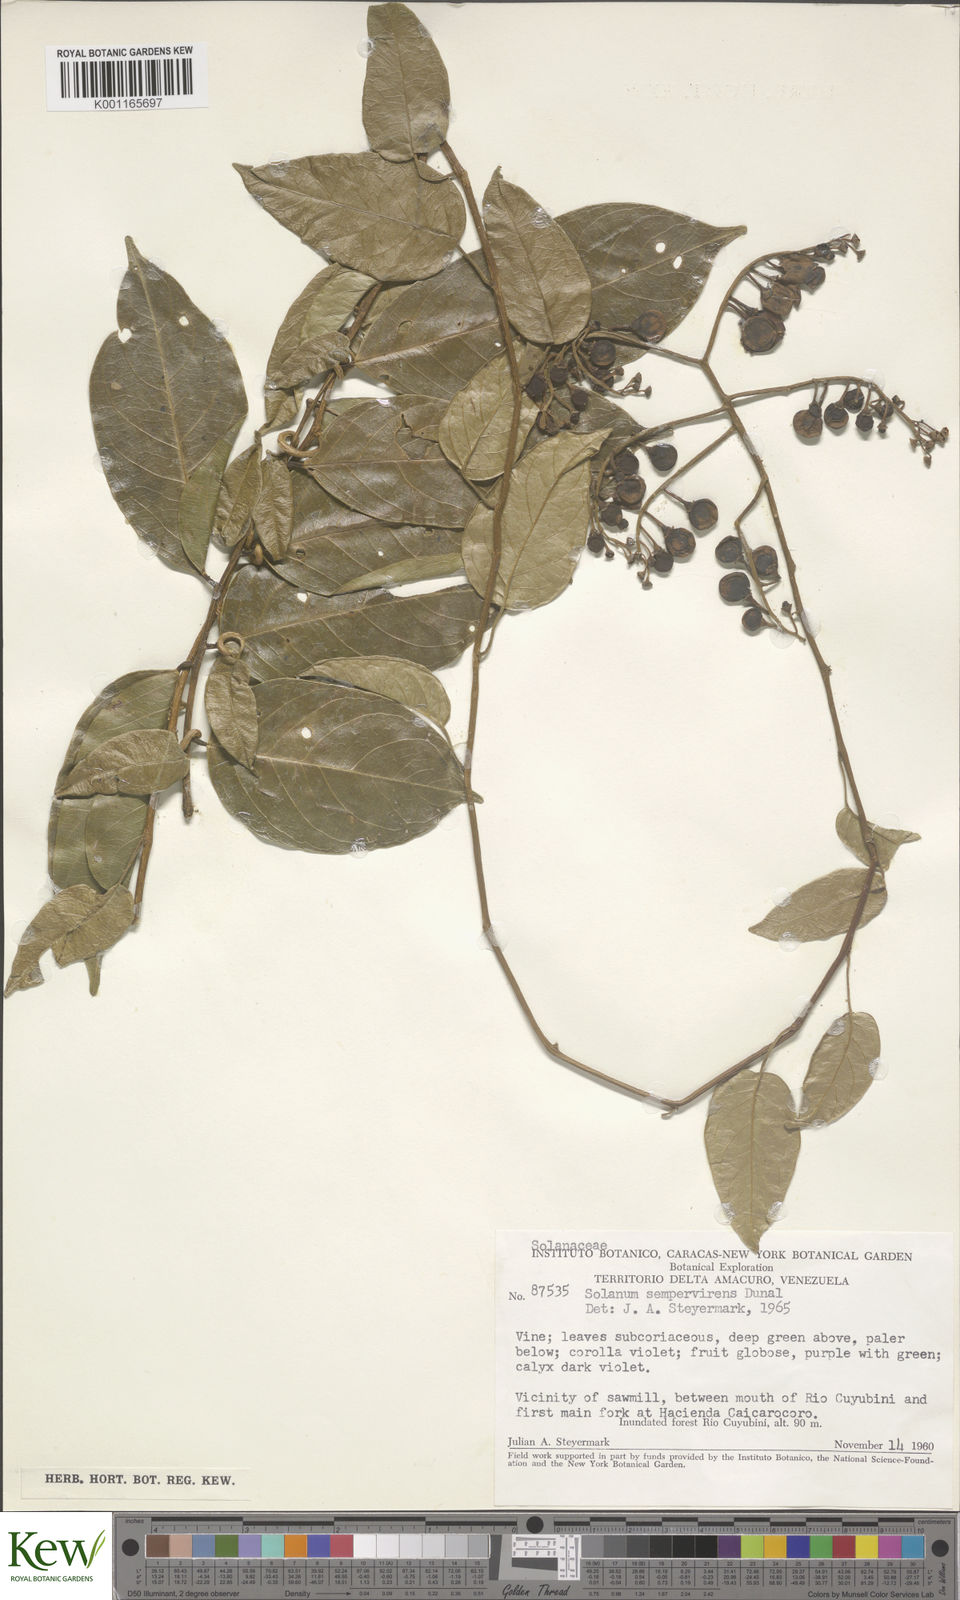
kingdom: Plantae
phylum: Tracheophyta
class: Magnoliopsida
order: Solanales
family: Solanaceae
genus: Solanum
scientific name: Solanum uncinellum
